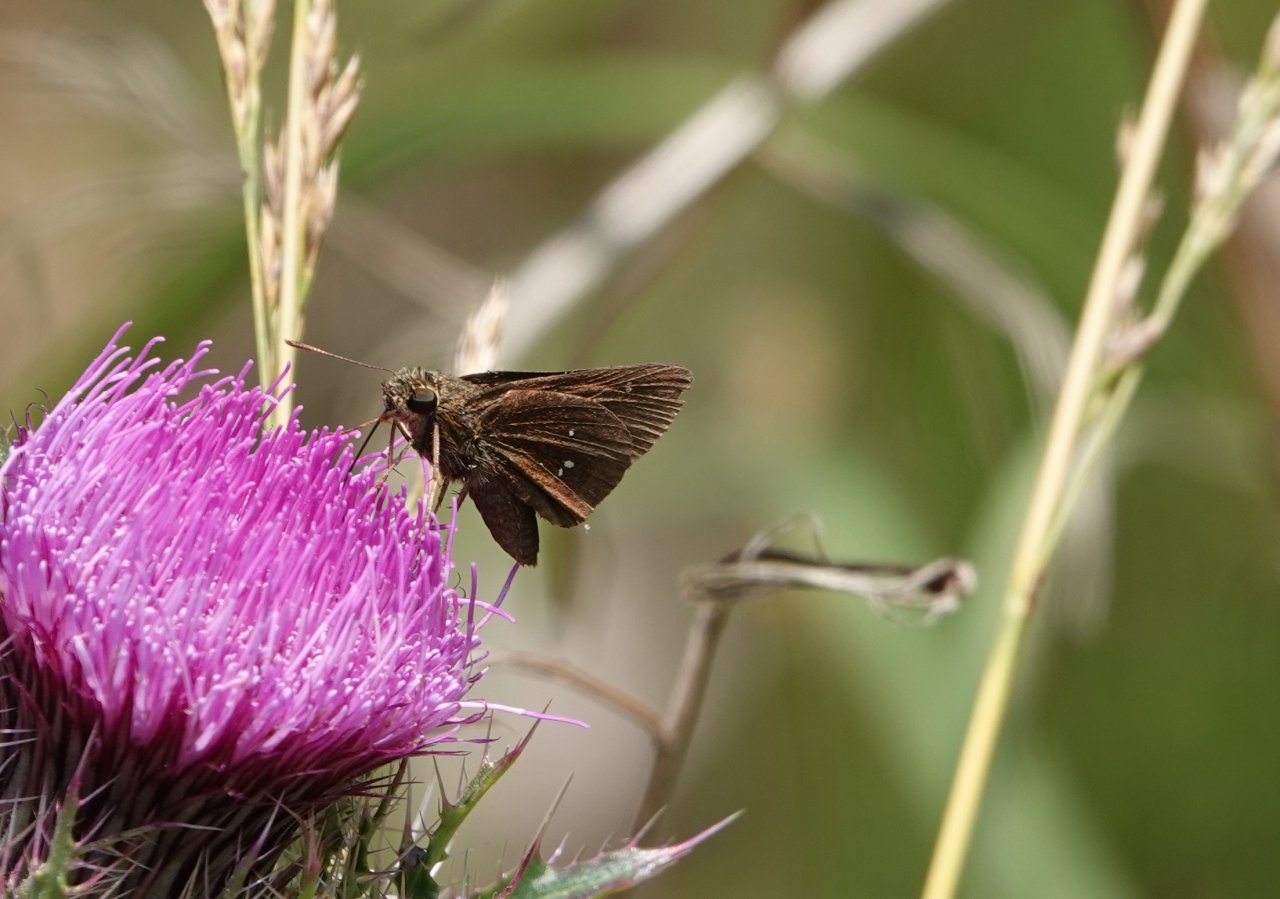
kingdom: Animalia
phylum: Arthropoda
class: Insecta
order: Lepidoptera
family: Hesperiidae
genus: Oligoria
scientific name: Oligoria maculata
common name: Twin-spot Skipper
